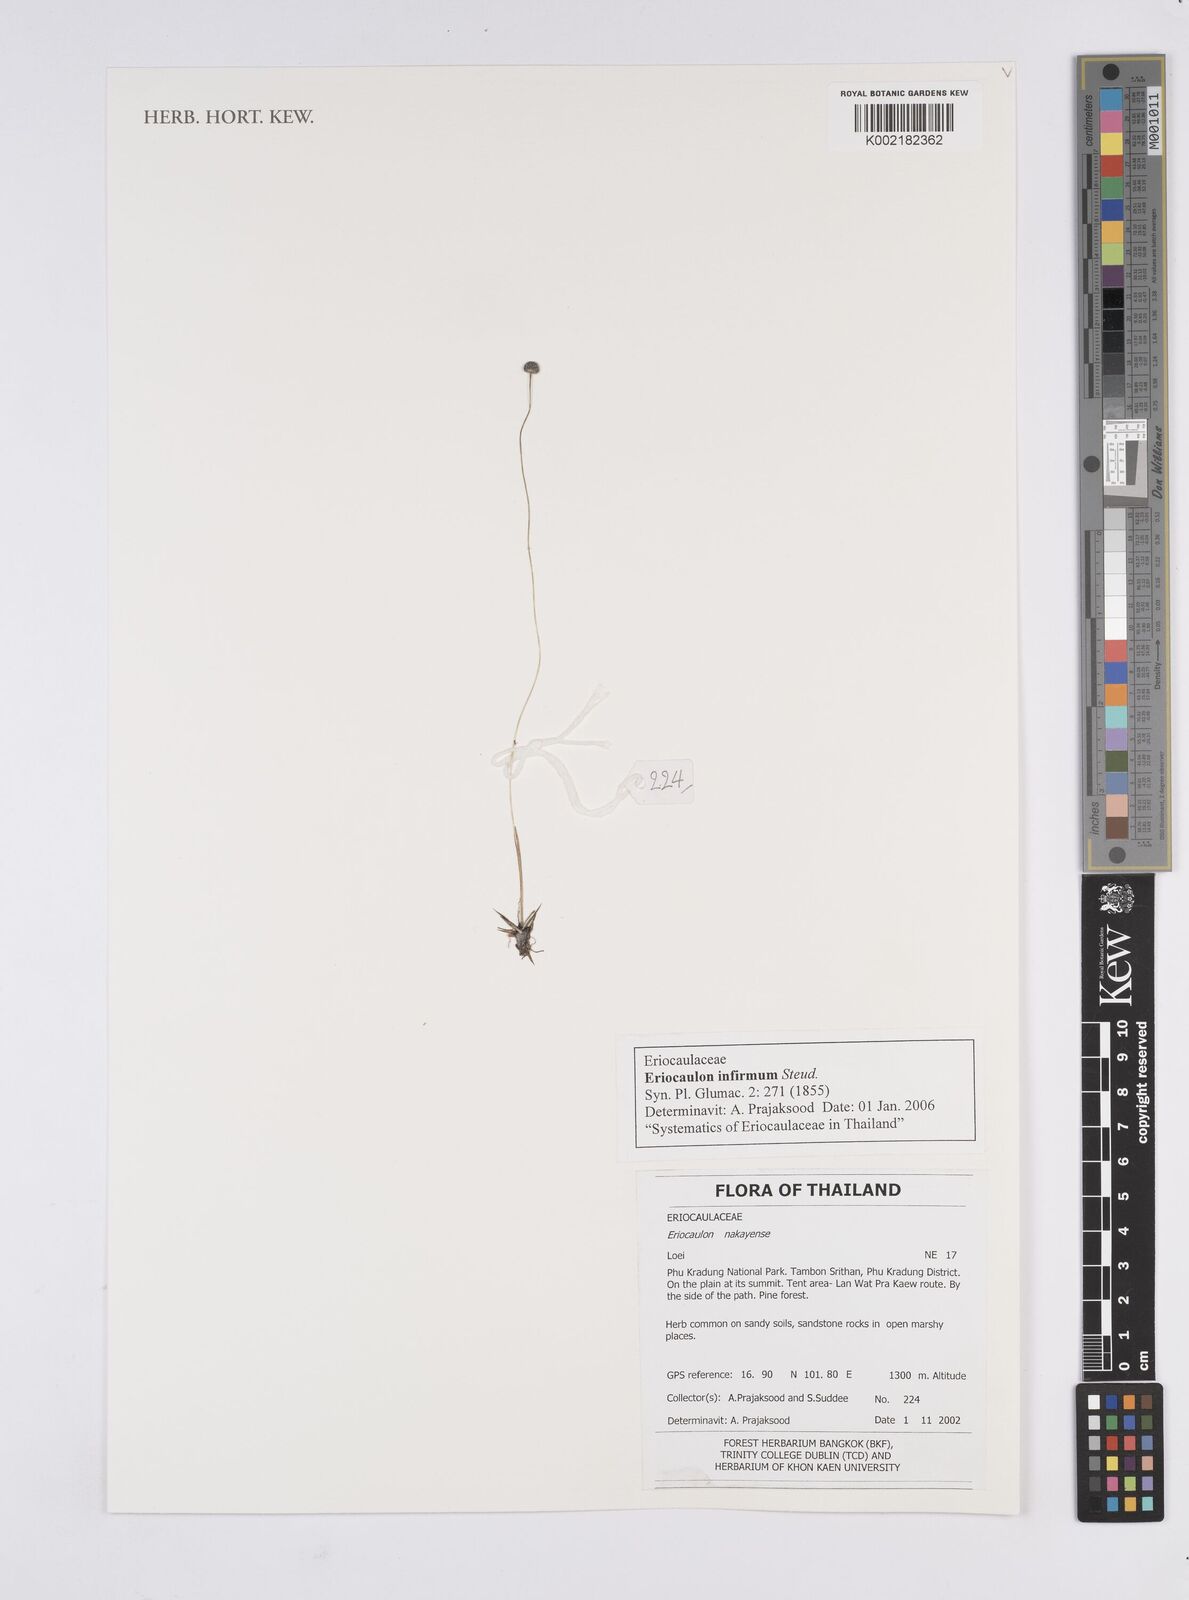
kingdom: Plantae
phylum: Tracheophyta
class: Liliopsida
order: Poales
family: Eriocaulaceae
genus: Eriocaulon
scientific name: Eriocaulon infirmum
